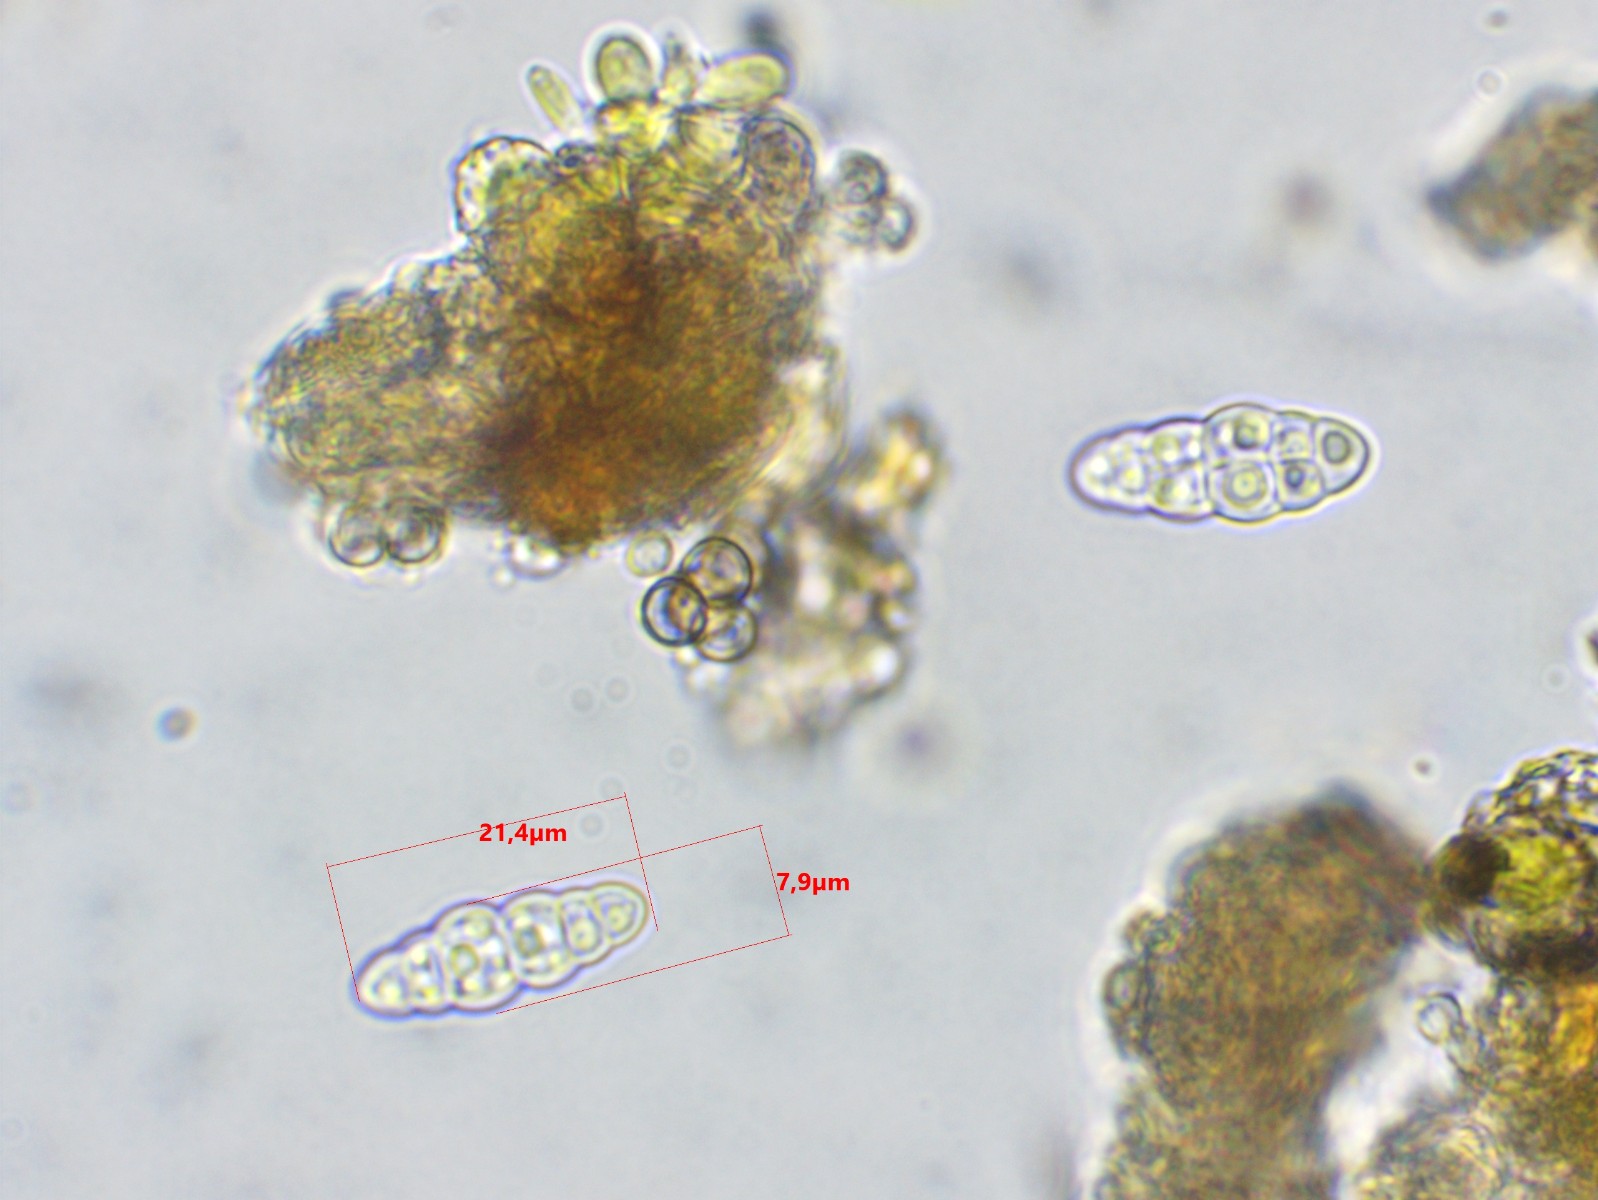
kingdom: Fungi
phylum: Ascomycota
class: Dothideomycetes
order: Hysteriales
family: Hysteriaceae
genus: Hysterobrevium
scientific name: Hysterobrevium mori
